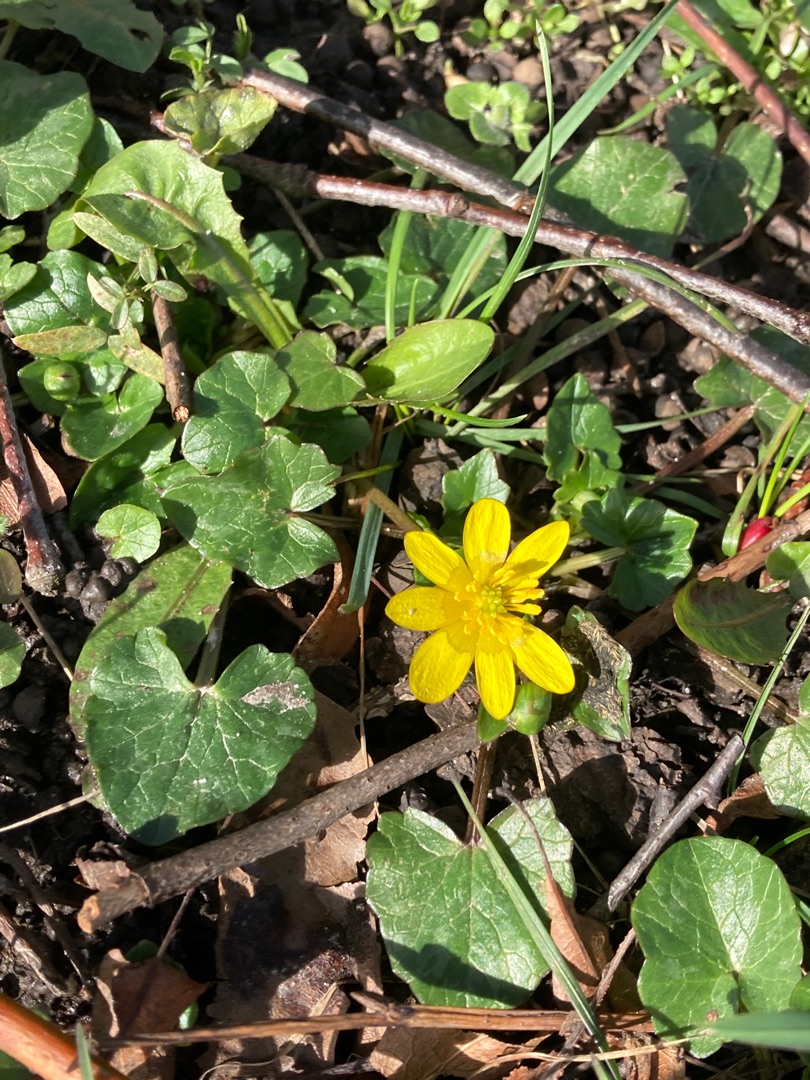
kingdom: Plantae
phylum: Tracheophyta
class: Magnoliopsida
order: Ranunculales
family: Ranunculaceae
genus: Ficaria
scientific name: Ficaria verna
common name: Vorterod
